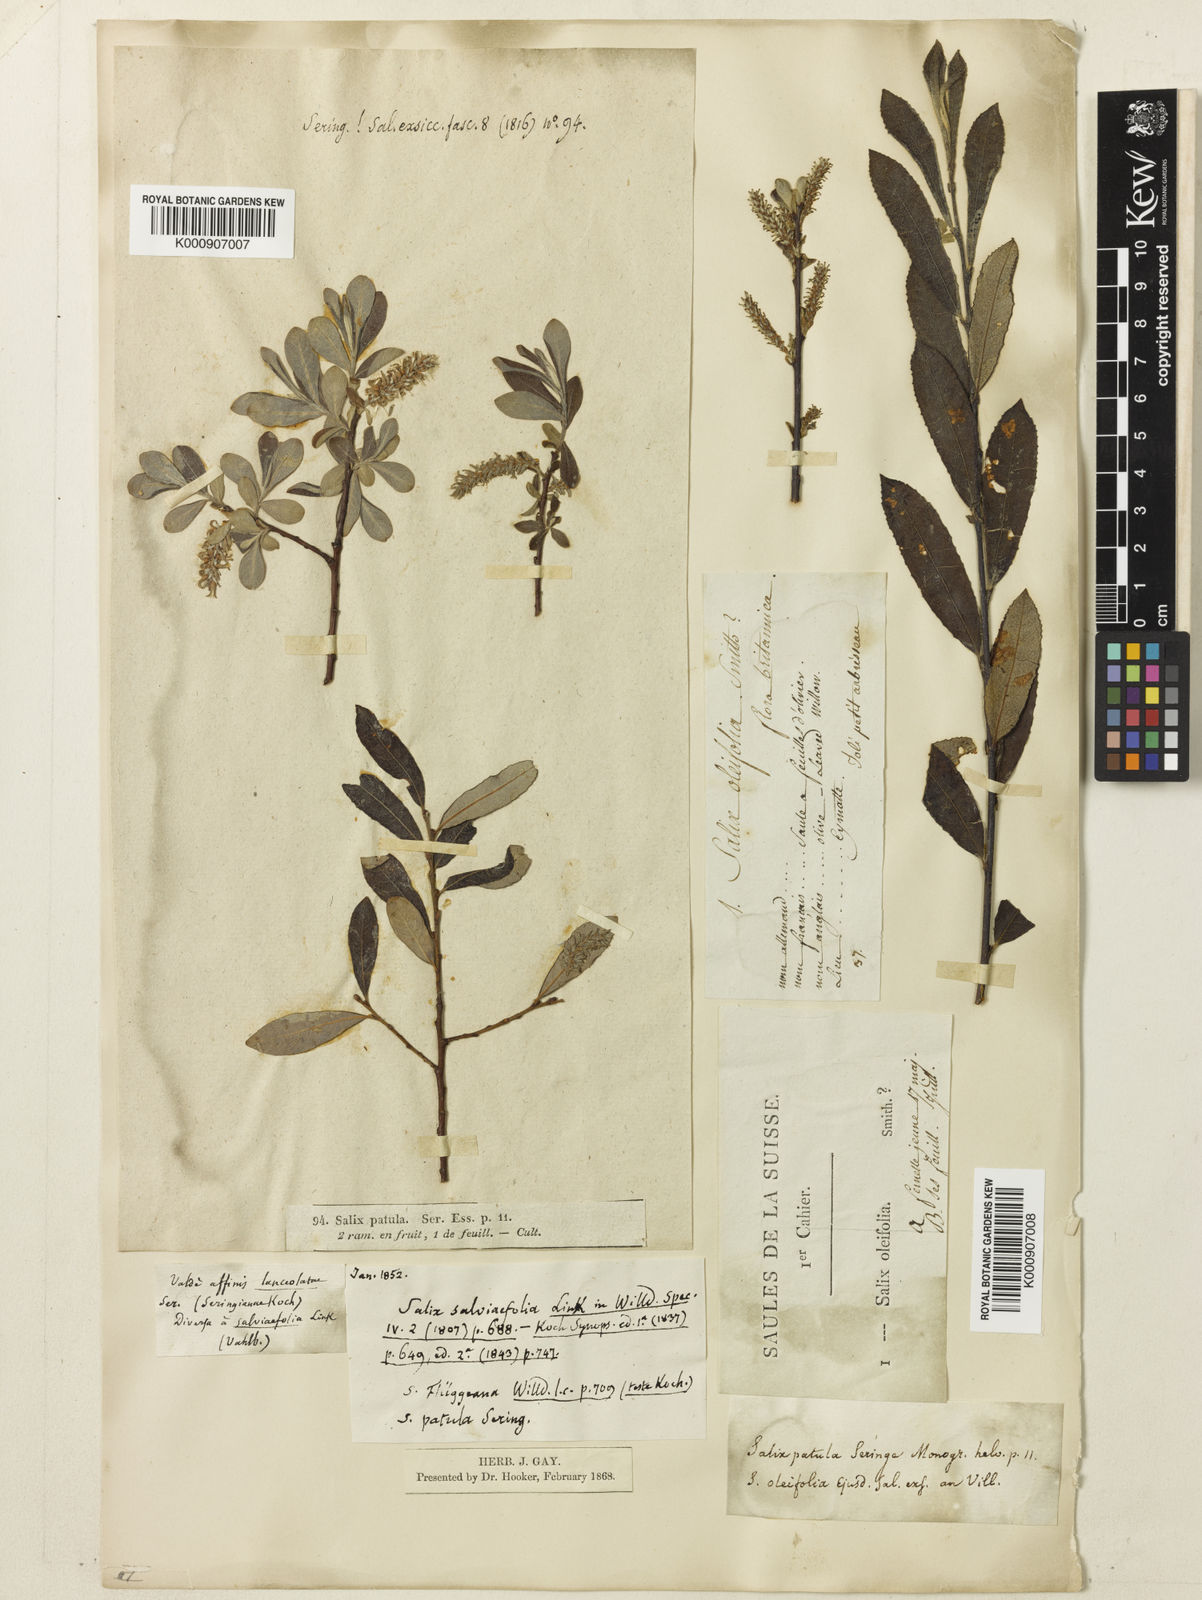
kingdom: Plantae
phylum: Tracheophyta
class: Magnoliopsida
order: Malpighiales
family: Salicaceae
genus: Salix
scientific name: Salix aurita
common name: Eared willow
